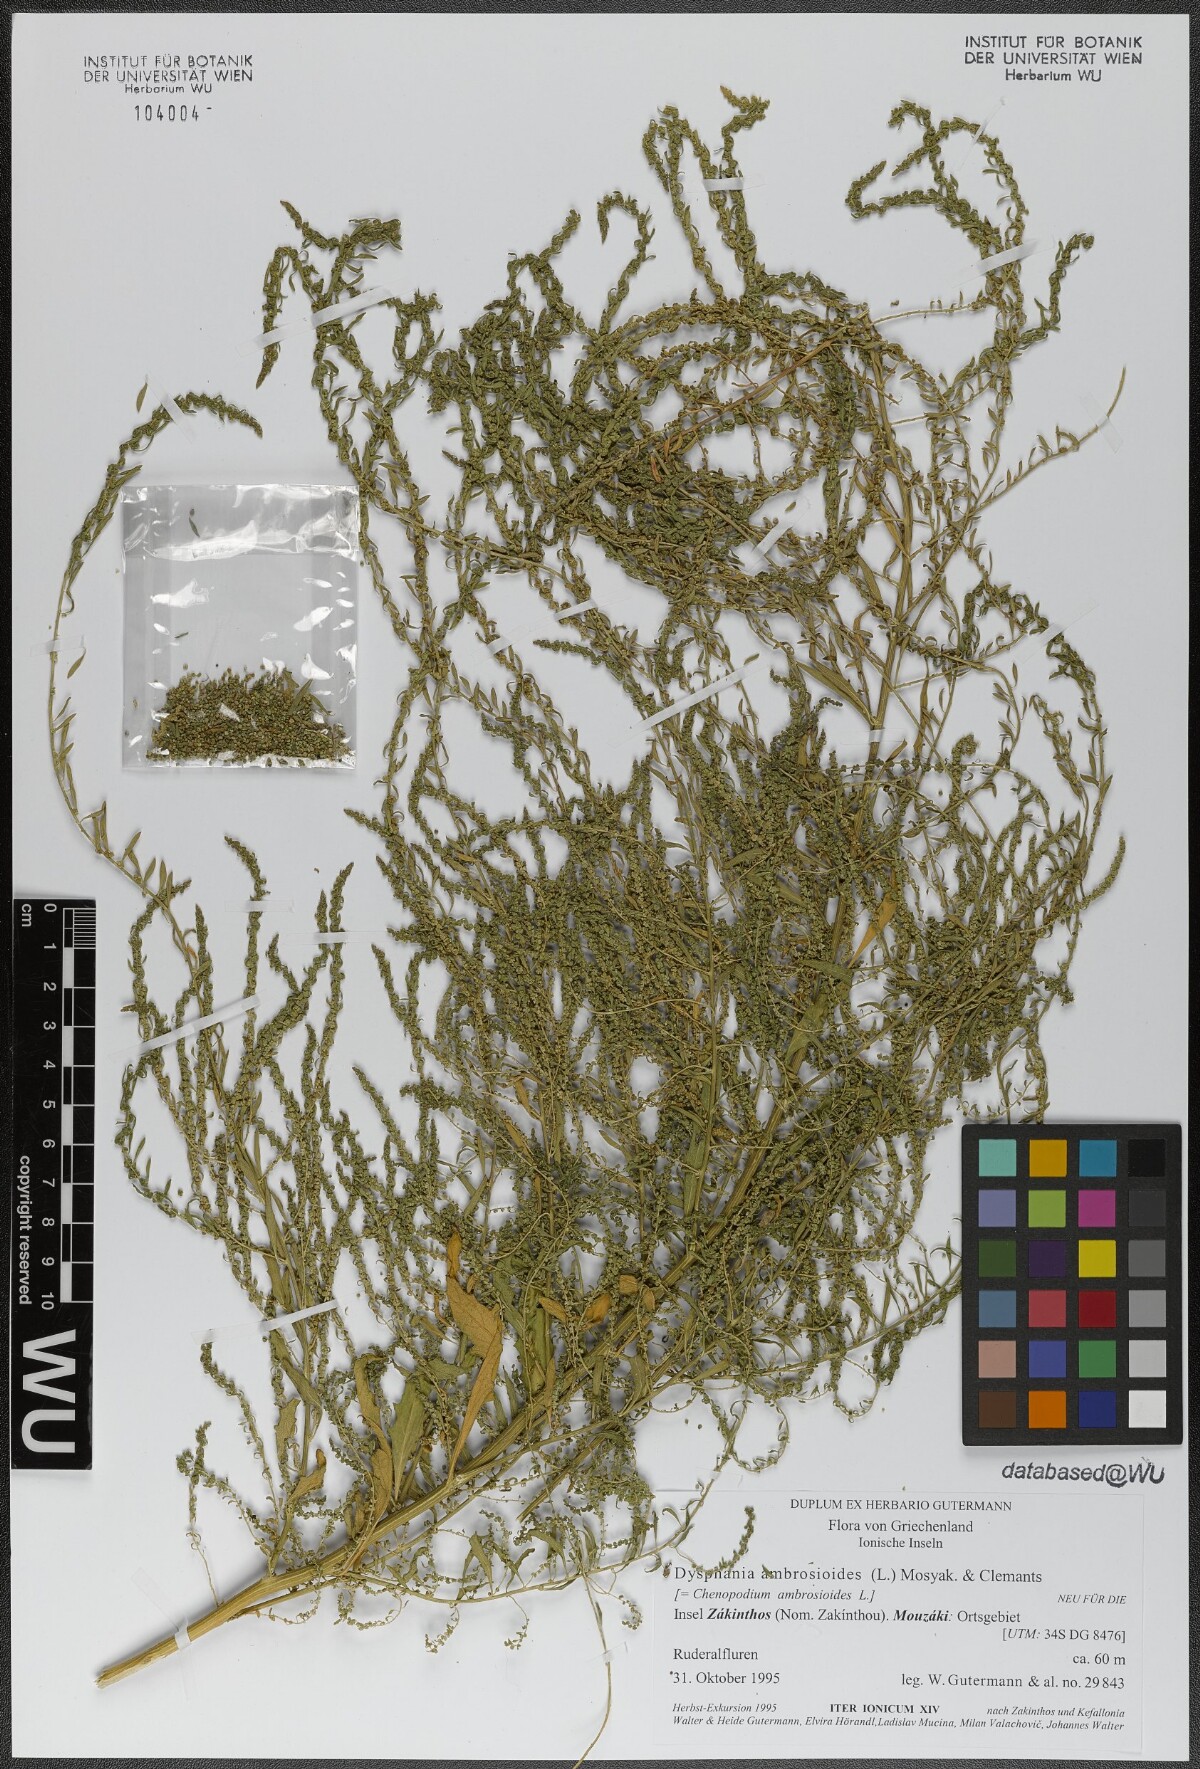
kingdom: Plantae
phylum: Tracheophyta
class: Magnoliopsida
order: Caryophyllales
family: Amaranthaceae
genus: Dysphania
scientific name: Dysphania ambrosioides
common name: Wormseed
